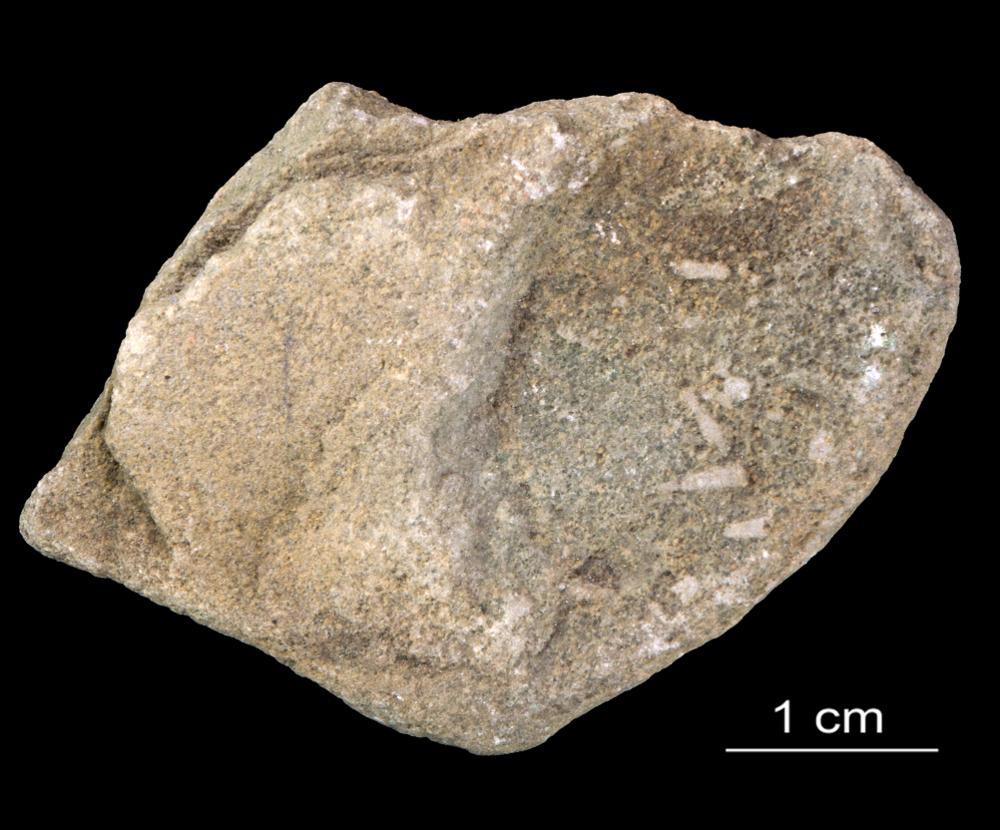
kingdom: Animalia
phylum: Annelida
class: Polychaeta
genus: Volborthella
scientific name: Volborthella tenuis
